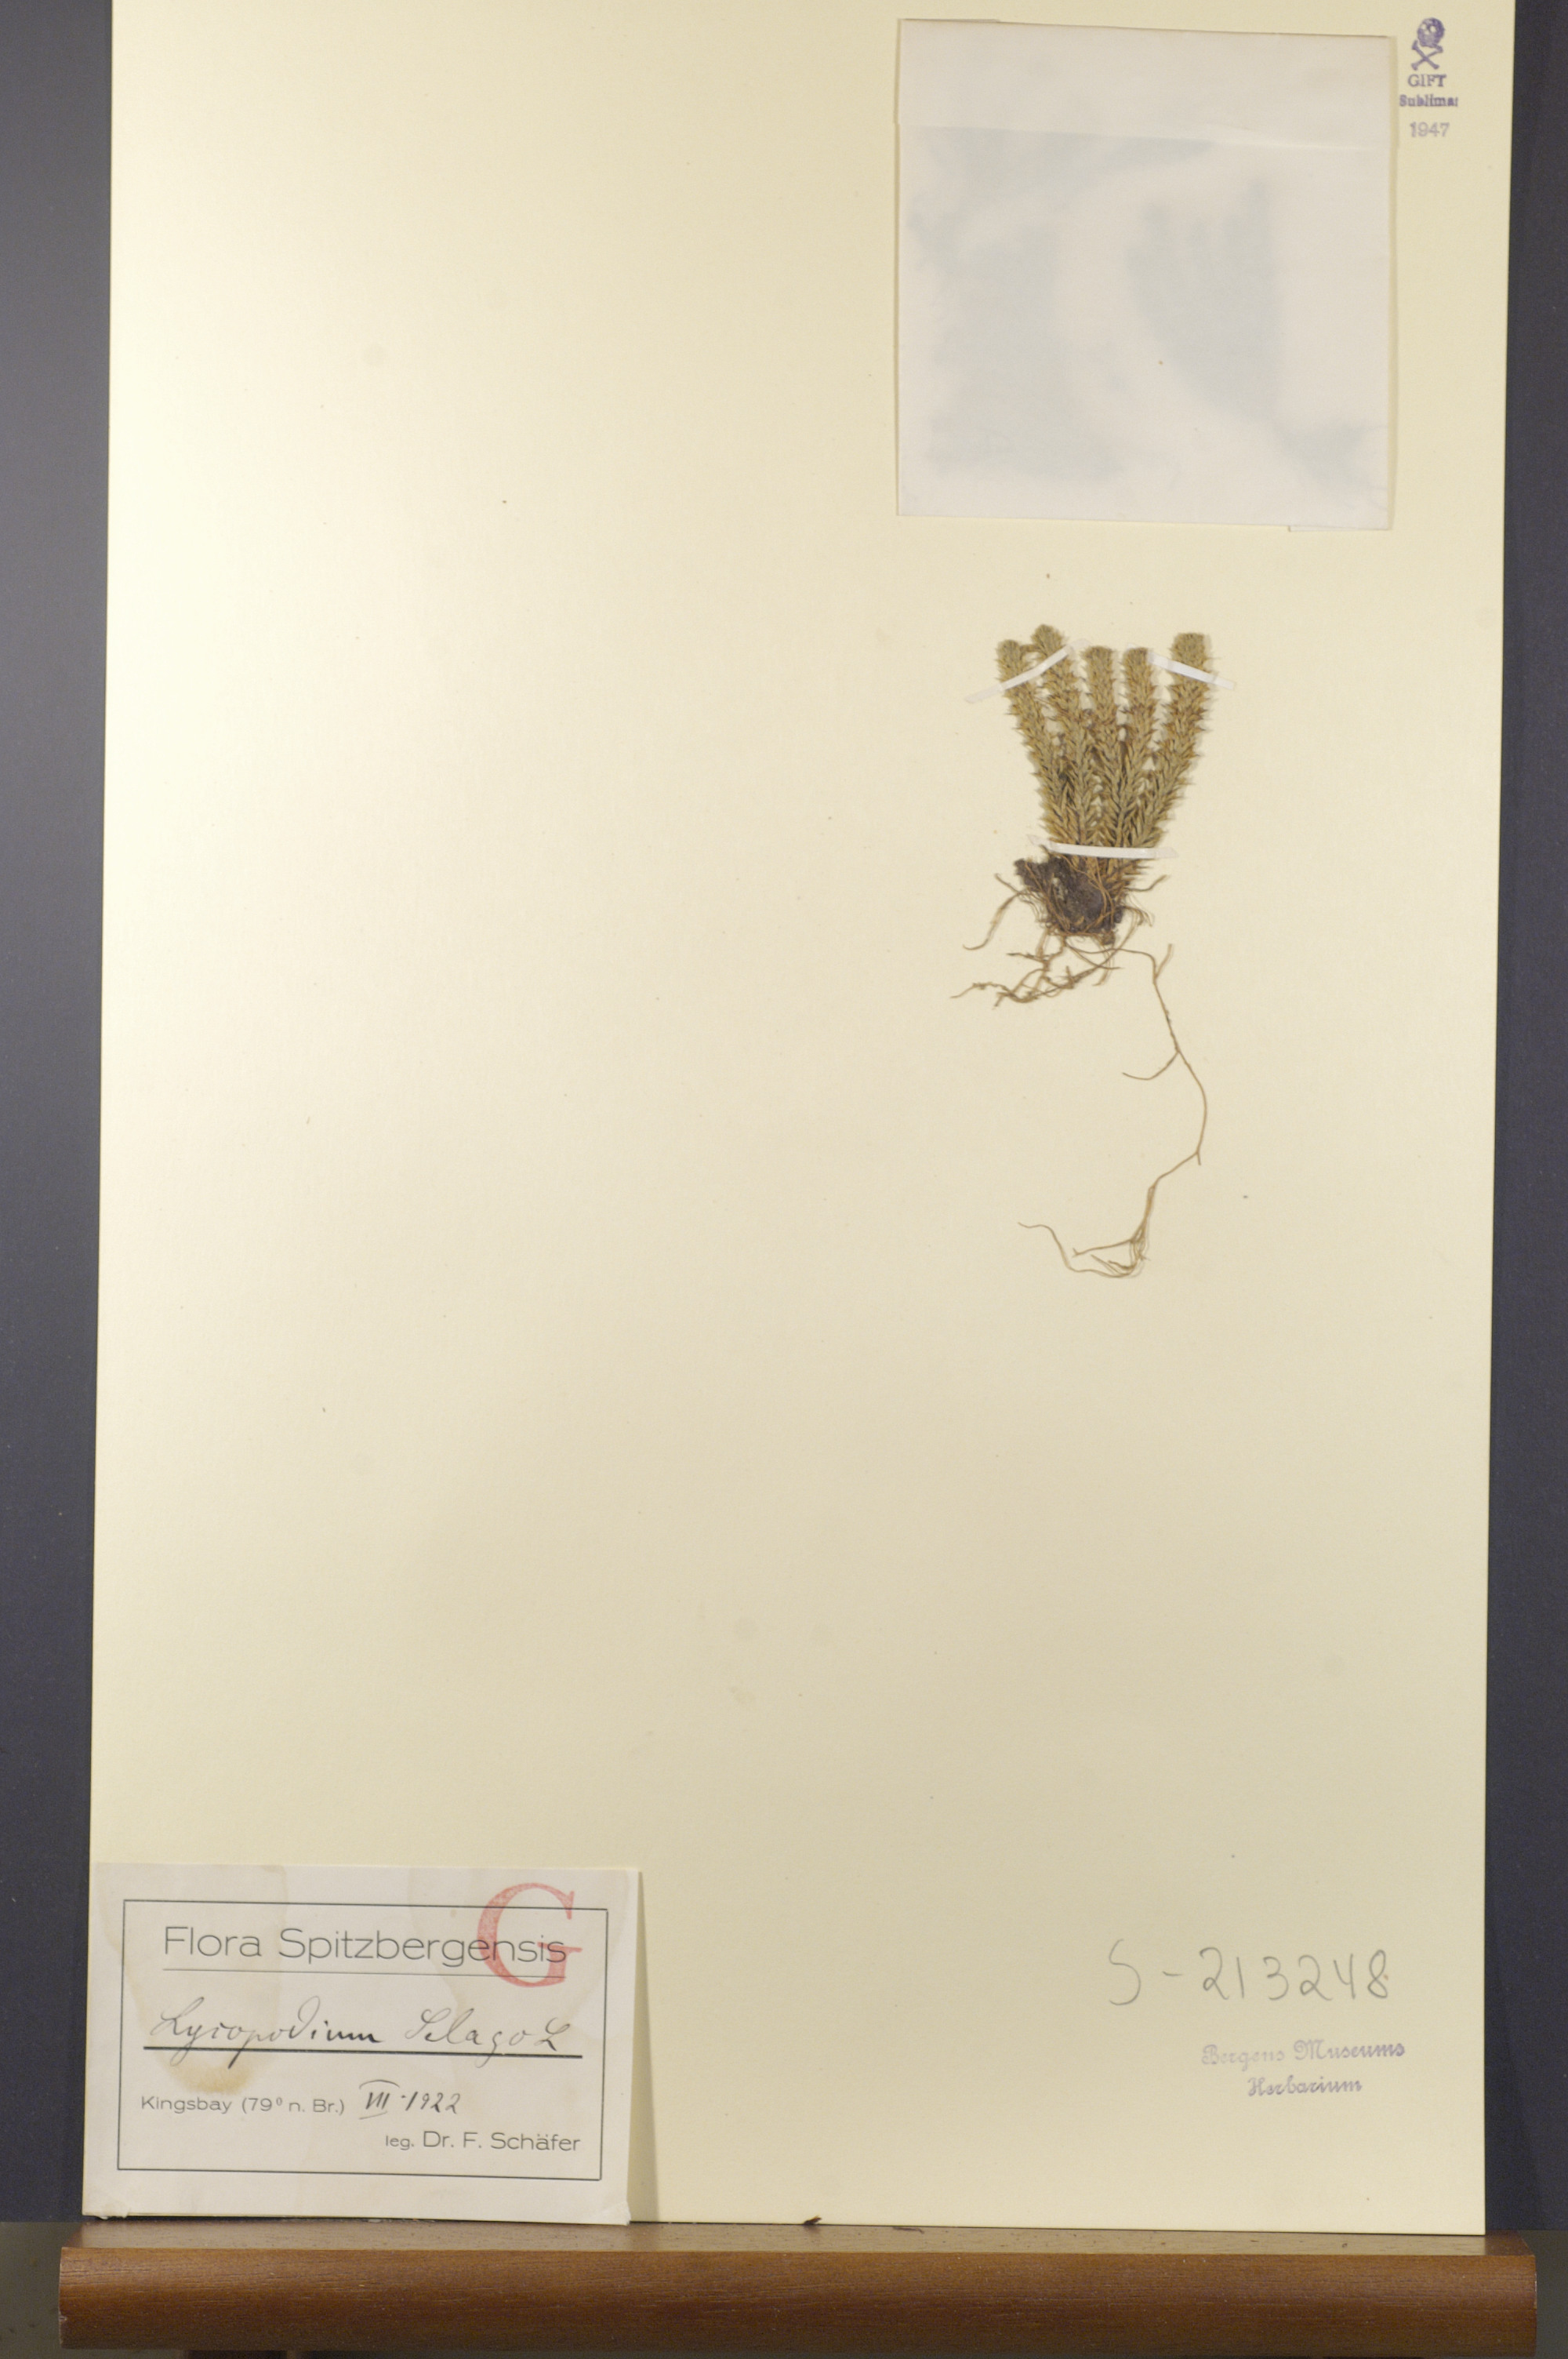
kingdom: Plantae
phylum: Tracheophyta
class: Lycopodiopsida
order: Lycopodiales
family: Lycopodiaceae
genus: Huperzia
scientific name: Huperzia selago
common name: Northern firmoss
